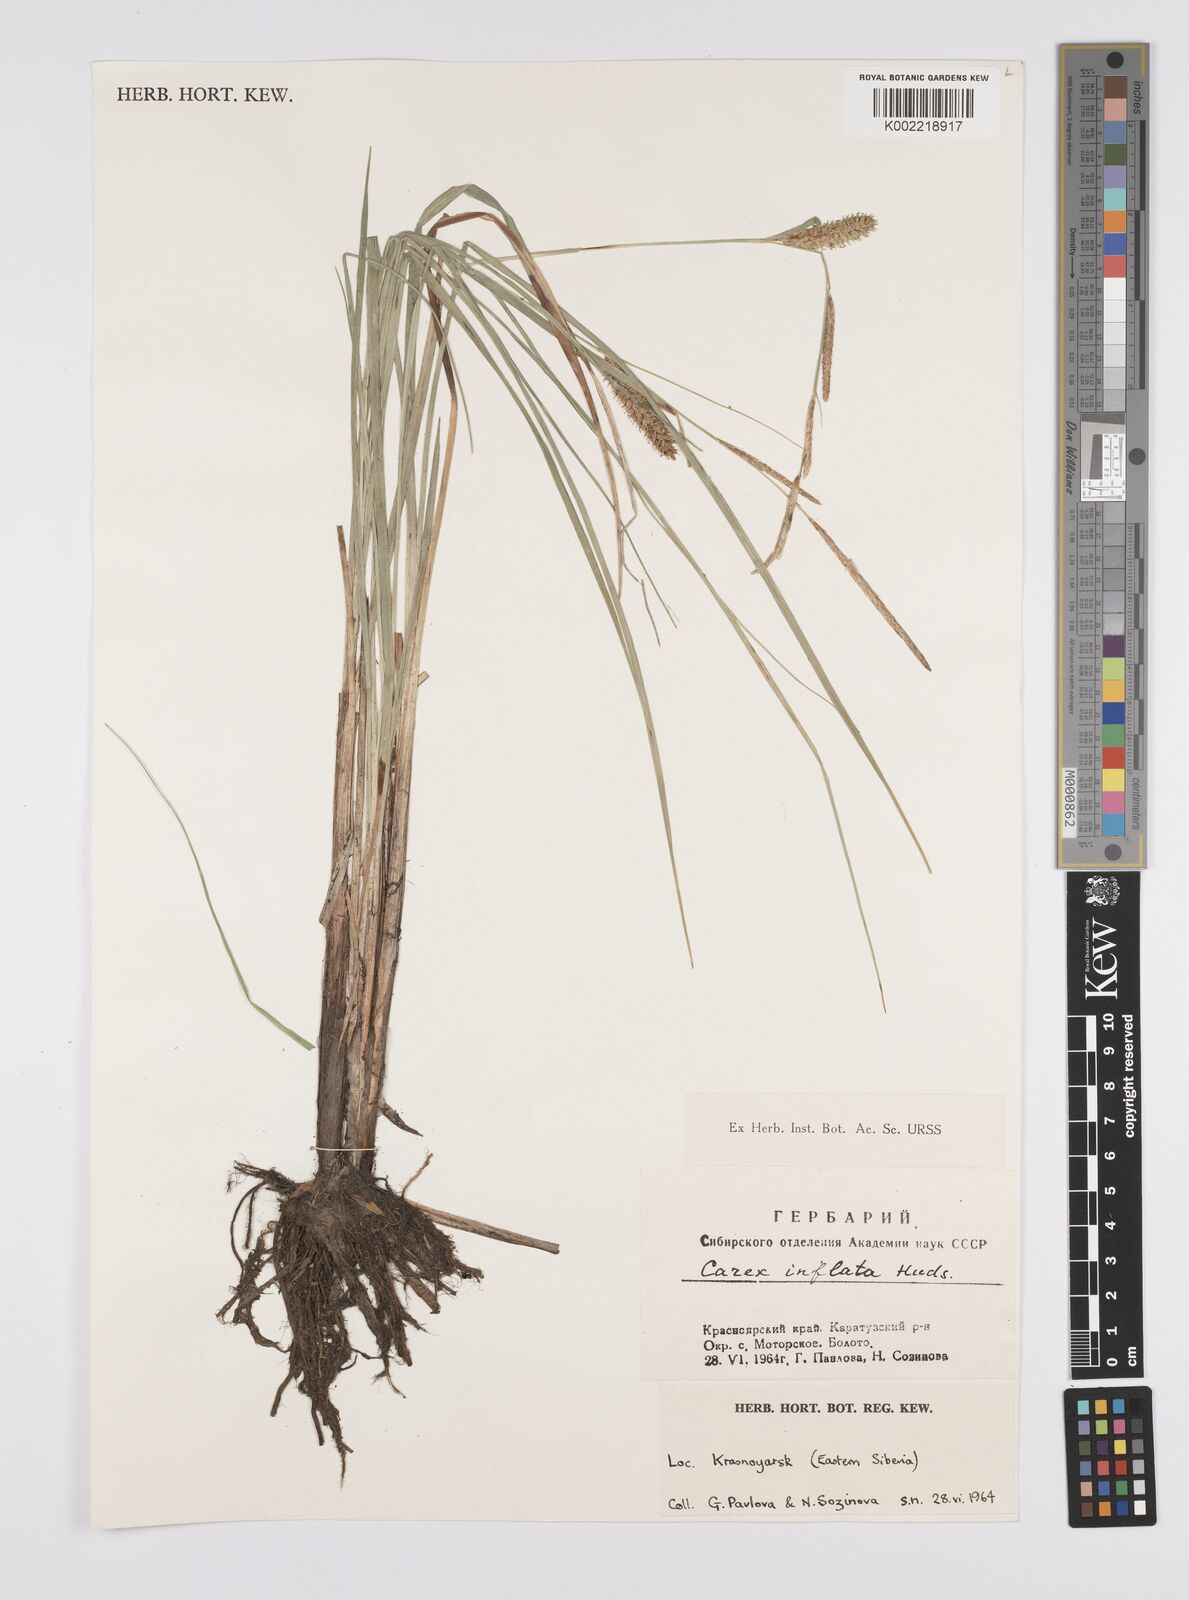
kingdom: Plantae
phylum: Tracheophyta
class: Liliopsida
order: Poales
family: Cyperaceae
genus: Carex
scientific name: Carex vesicaria
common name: Bladder-sedge
